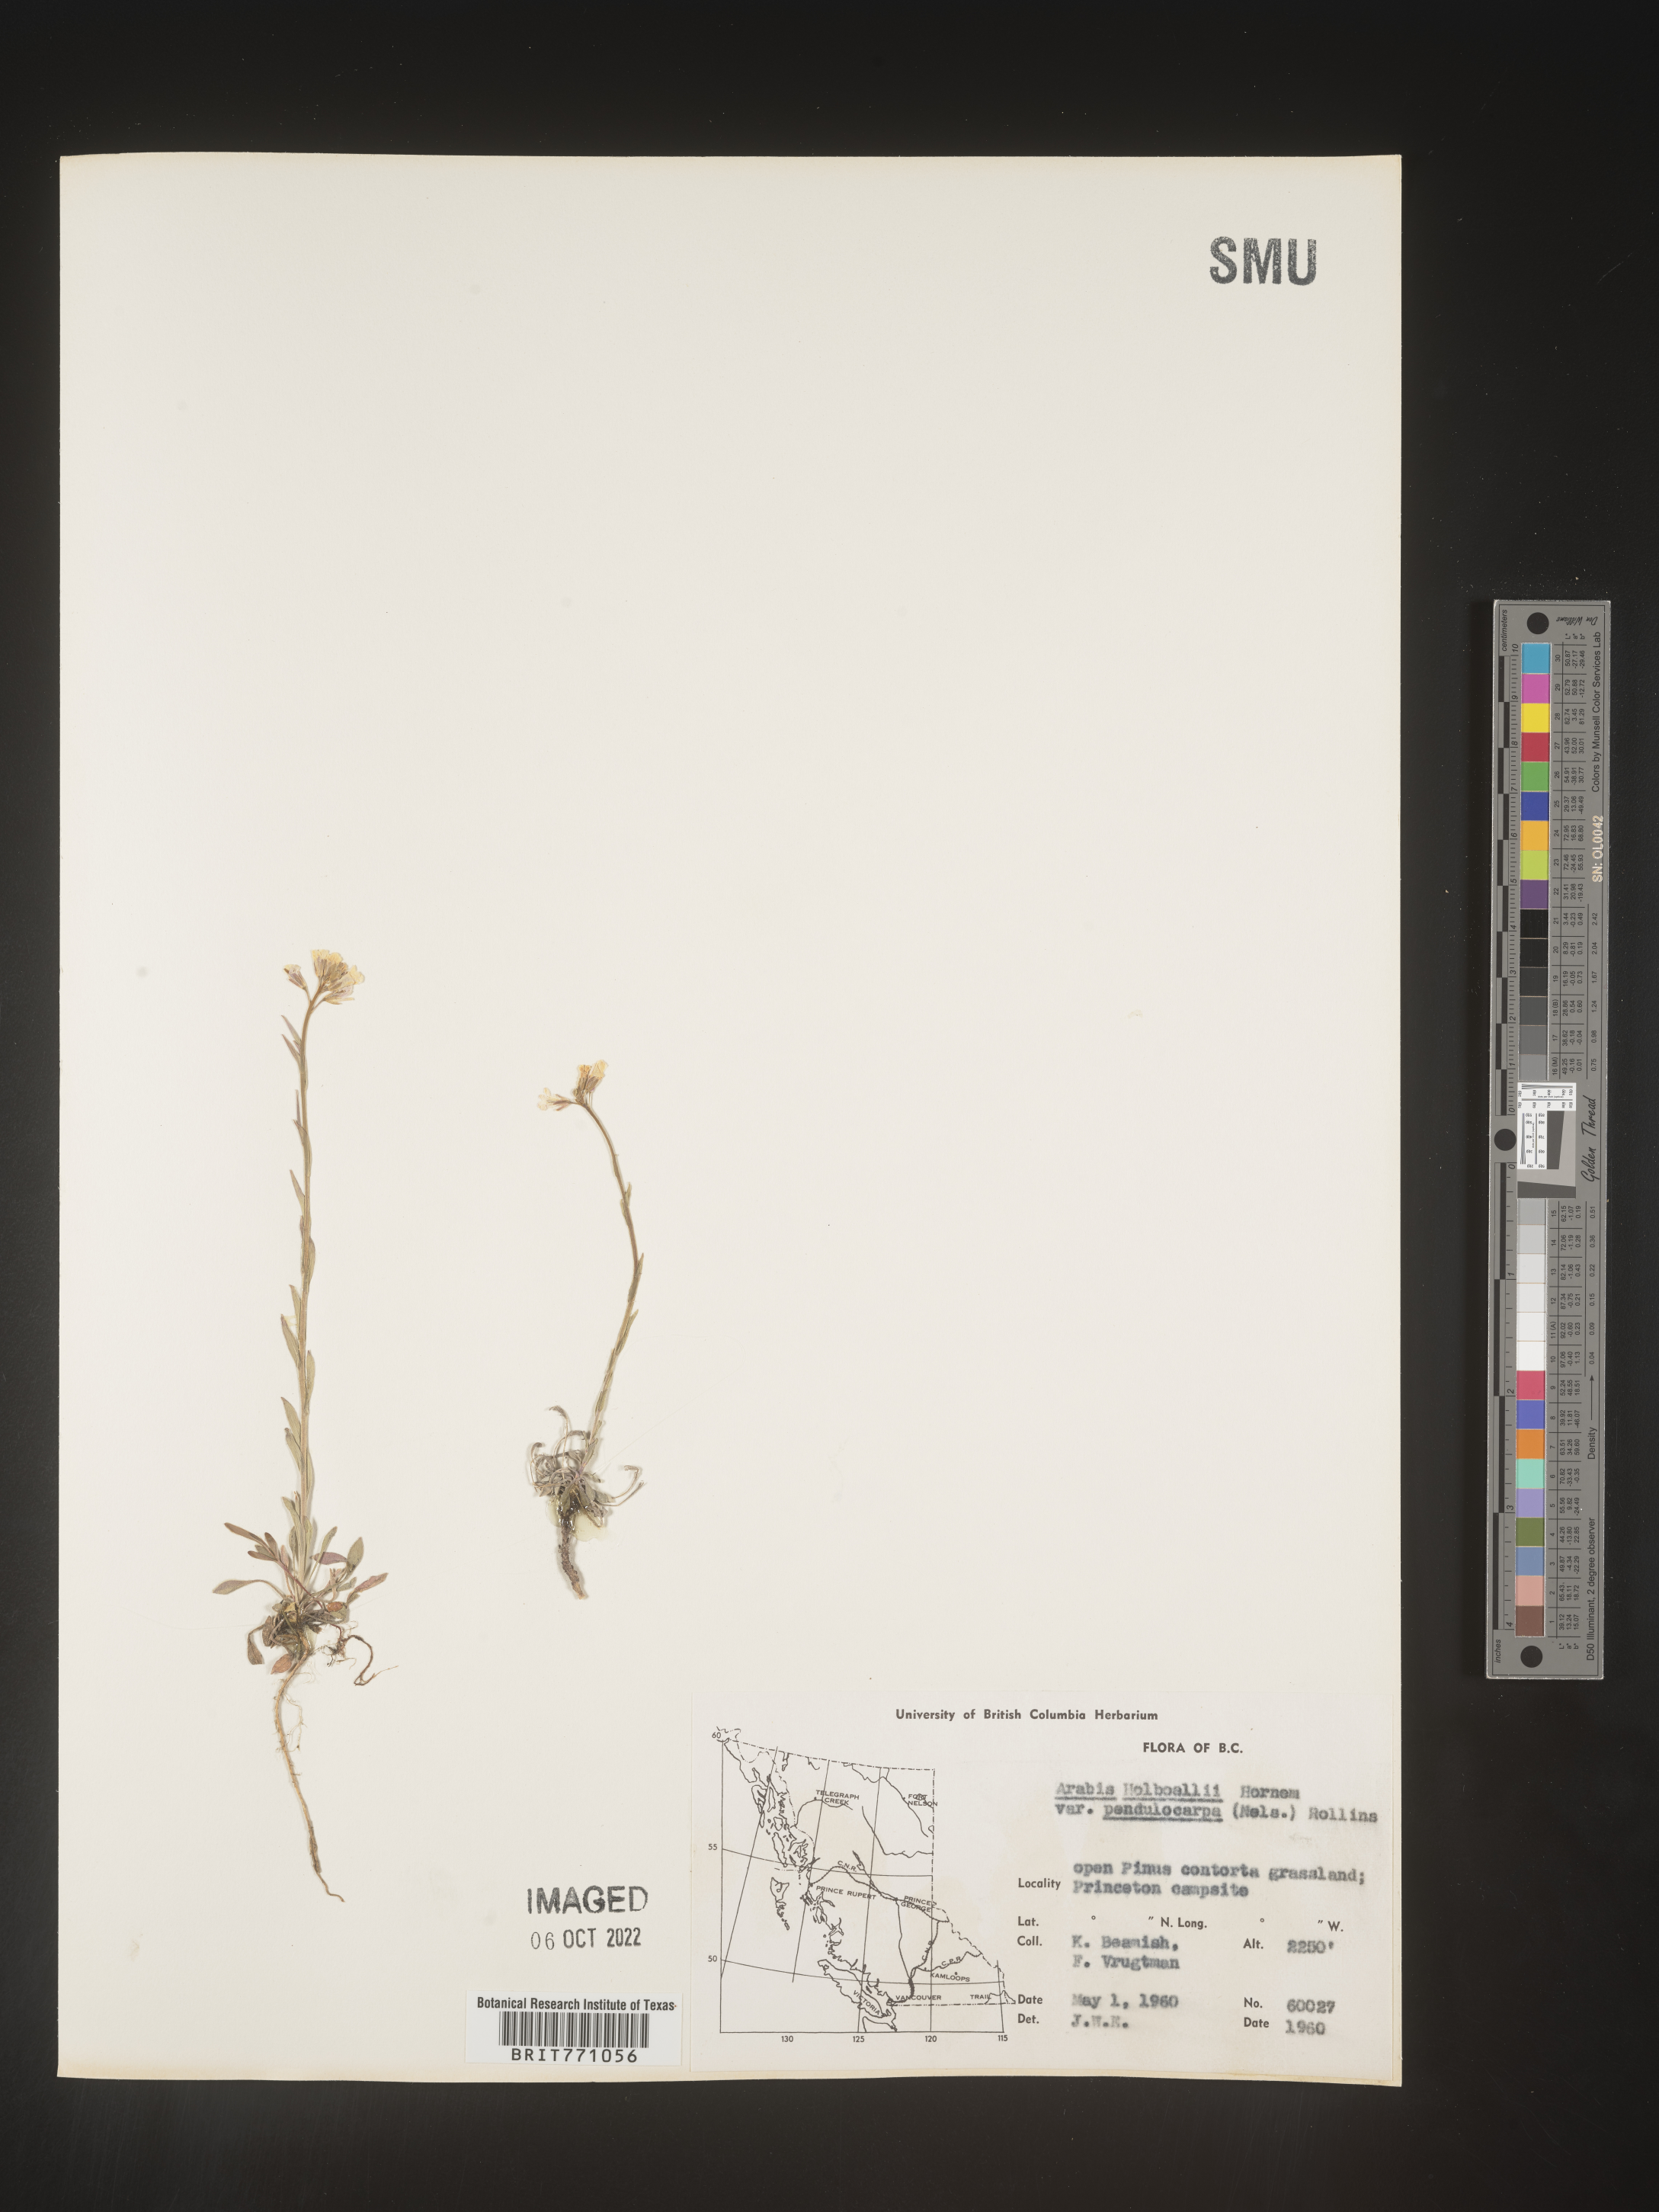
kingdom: Plantae
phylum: Tracheophyta
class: Magnoliopsida
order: Brassicales
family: Brassicaceae
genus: Boechera
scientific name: Boechera holboellii
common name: Holboell's rockcress
